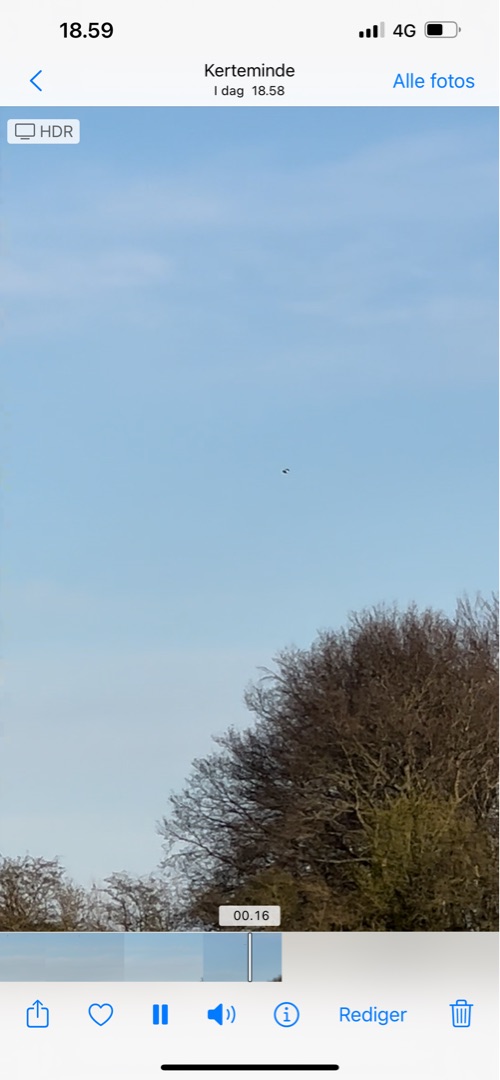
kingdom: Animalia
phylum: Chordata
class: Aves
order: Charadriiformes
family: Charadriidae
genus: Vanellus
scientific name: Vanellus vanellus
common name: Vibe
